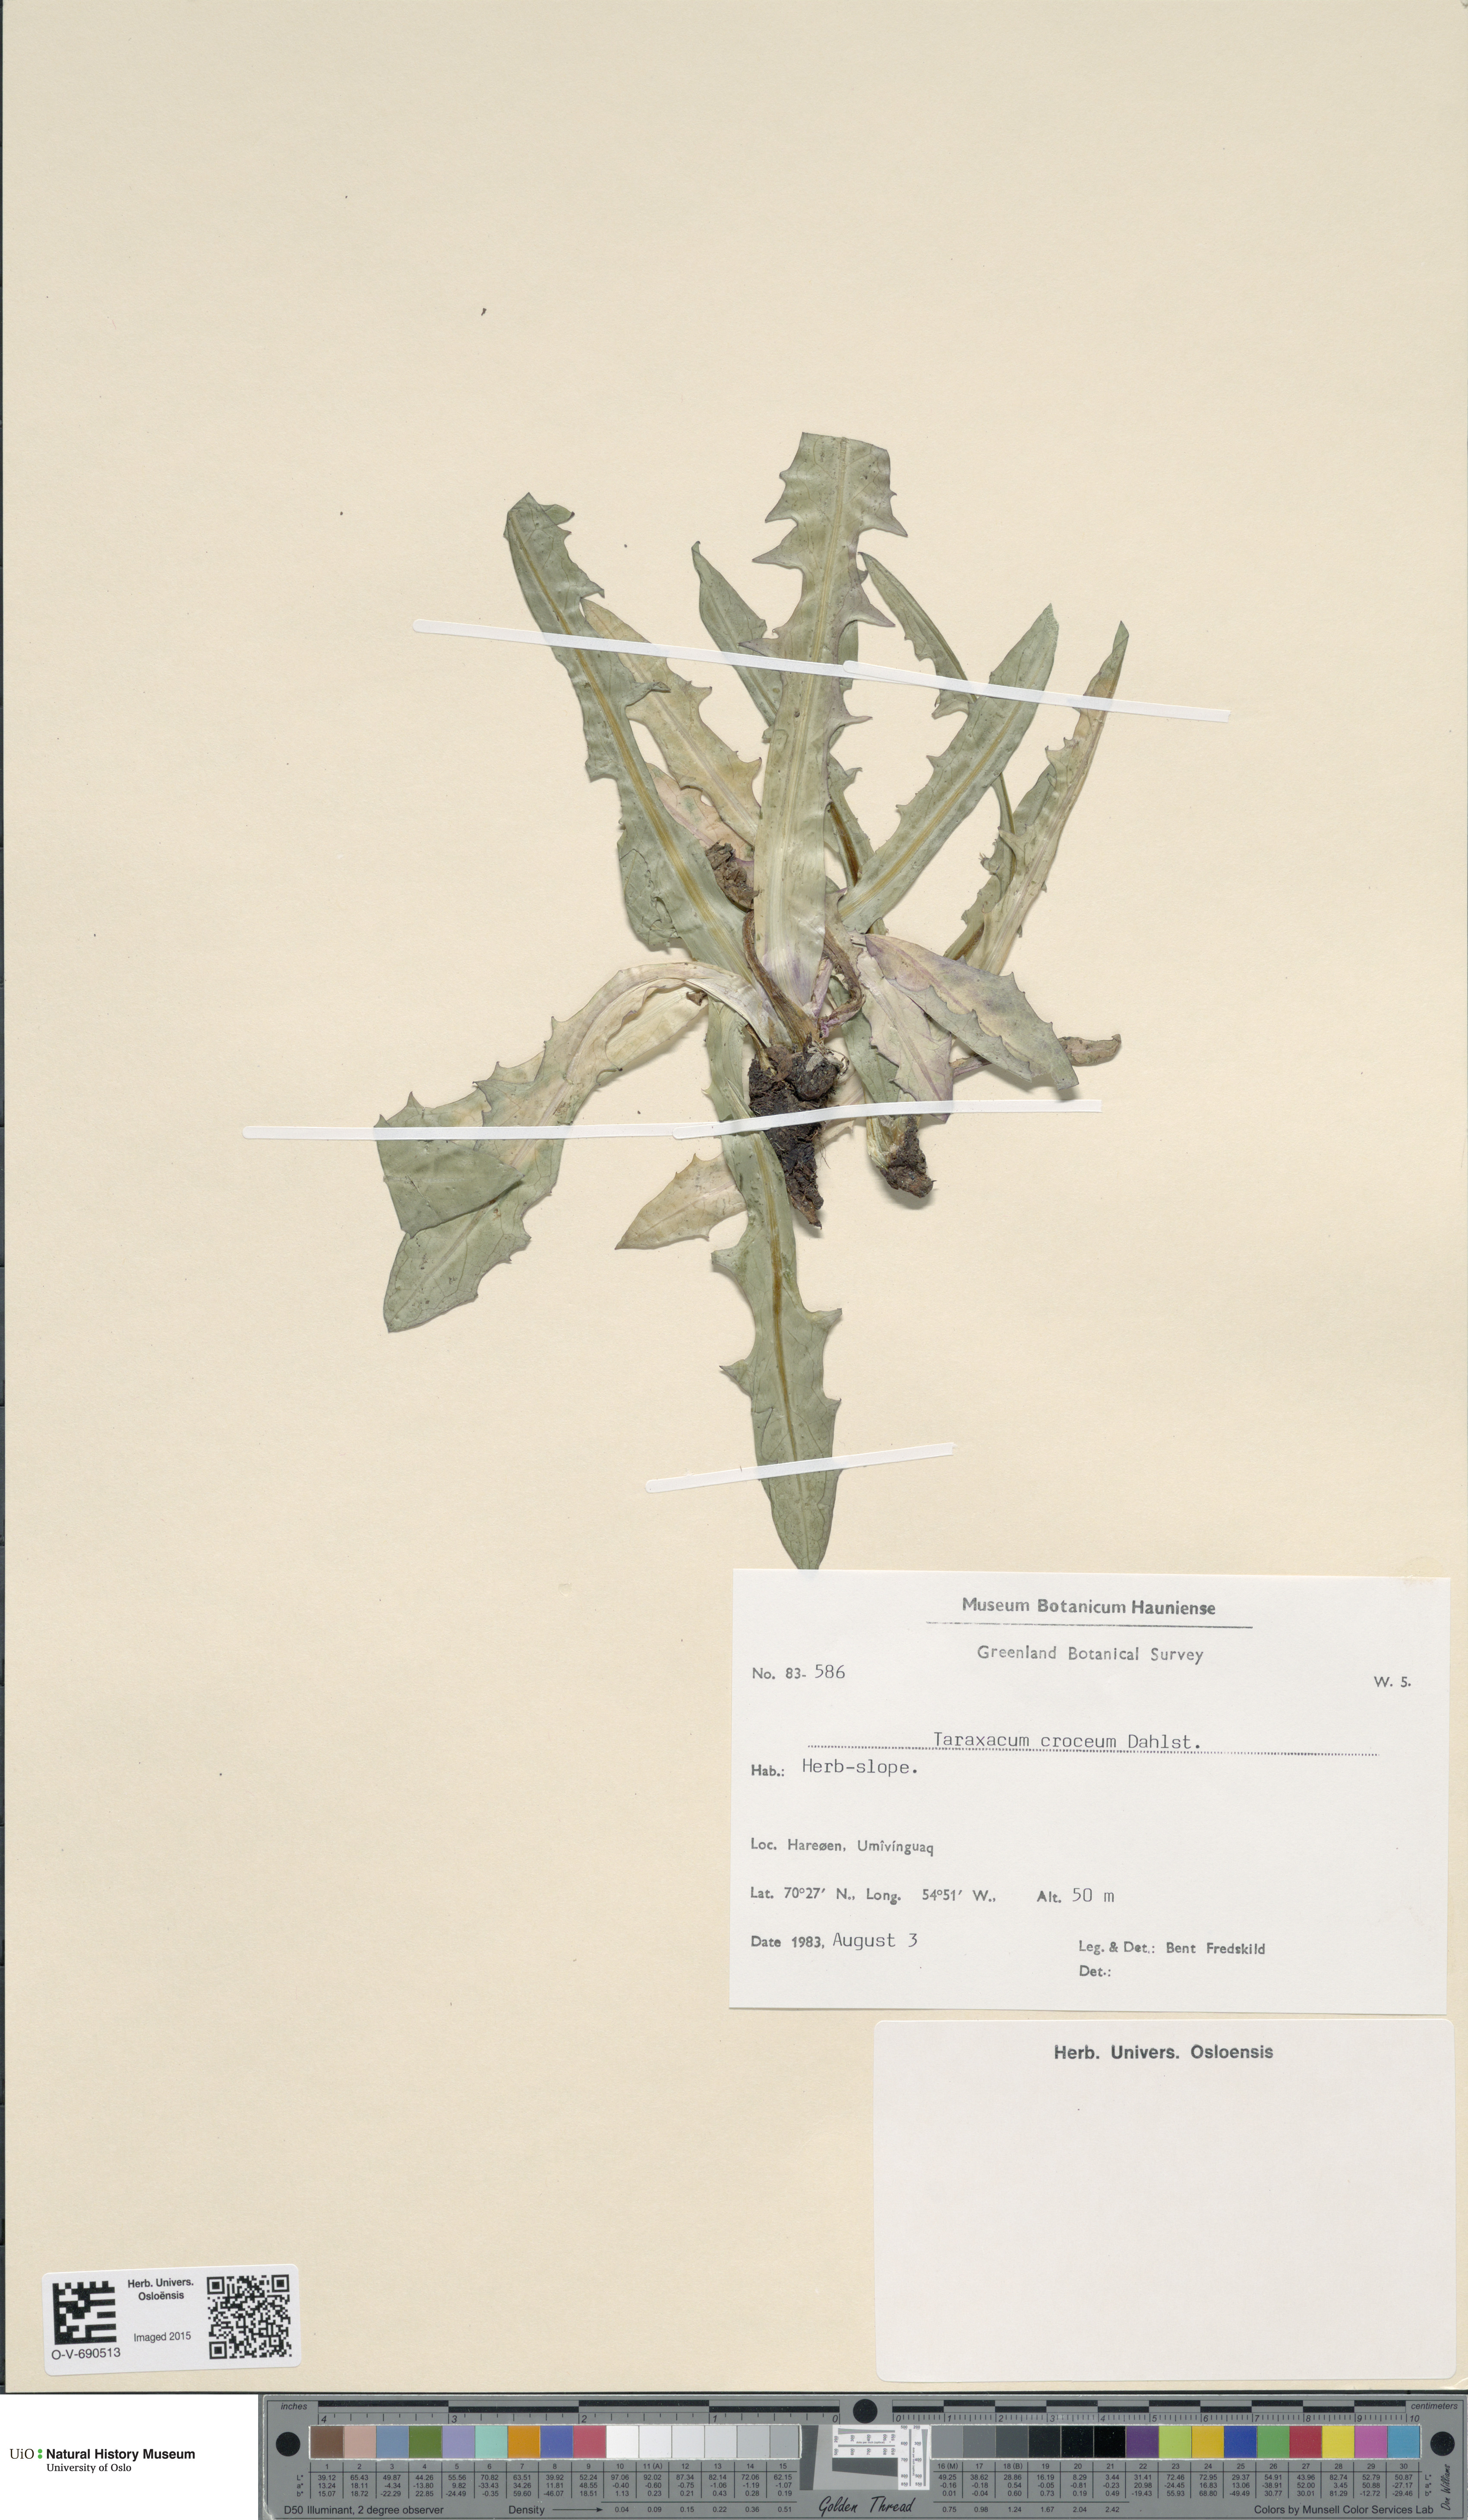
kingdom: Plantae
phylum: Tracheophyta
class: Magnoliopsida
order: Asterales
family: Asteraceae
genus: Taraxacum
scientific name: Taraxacum croceum
